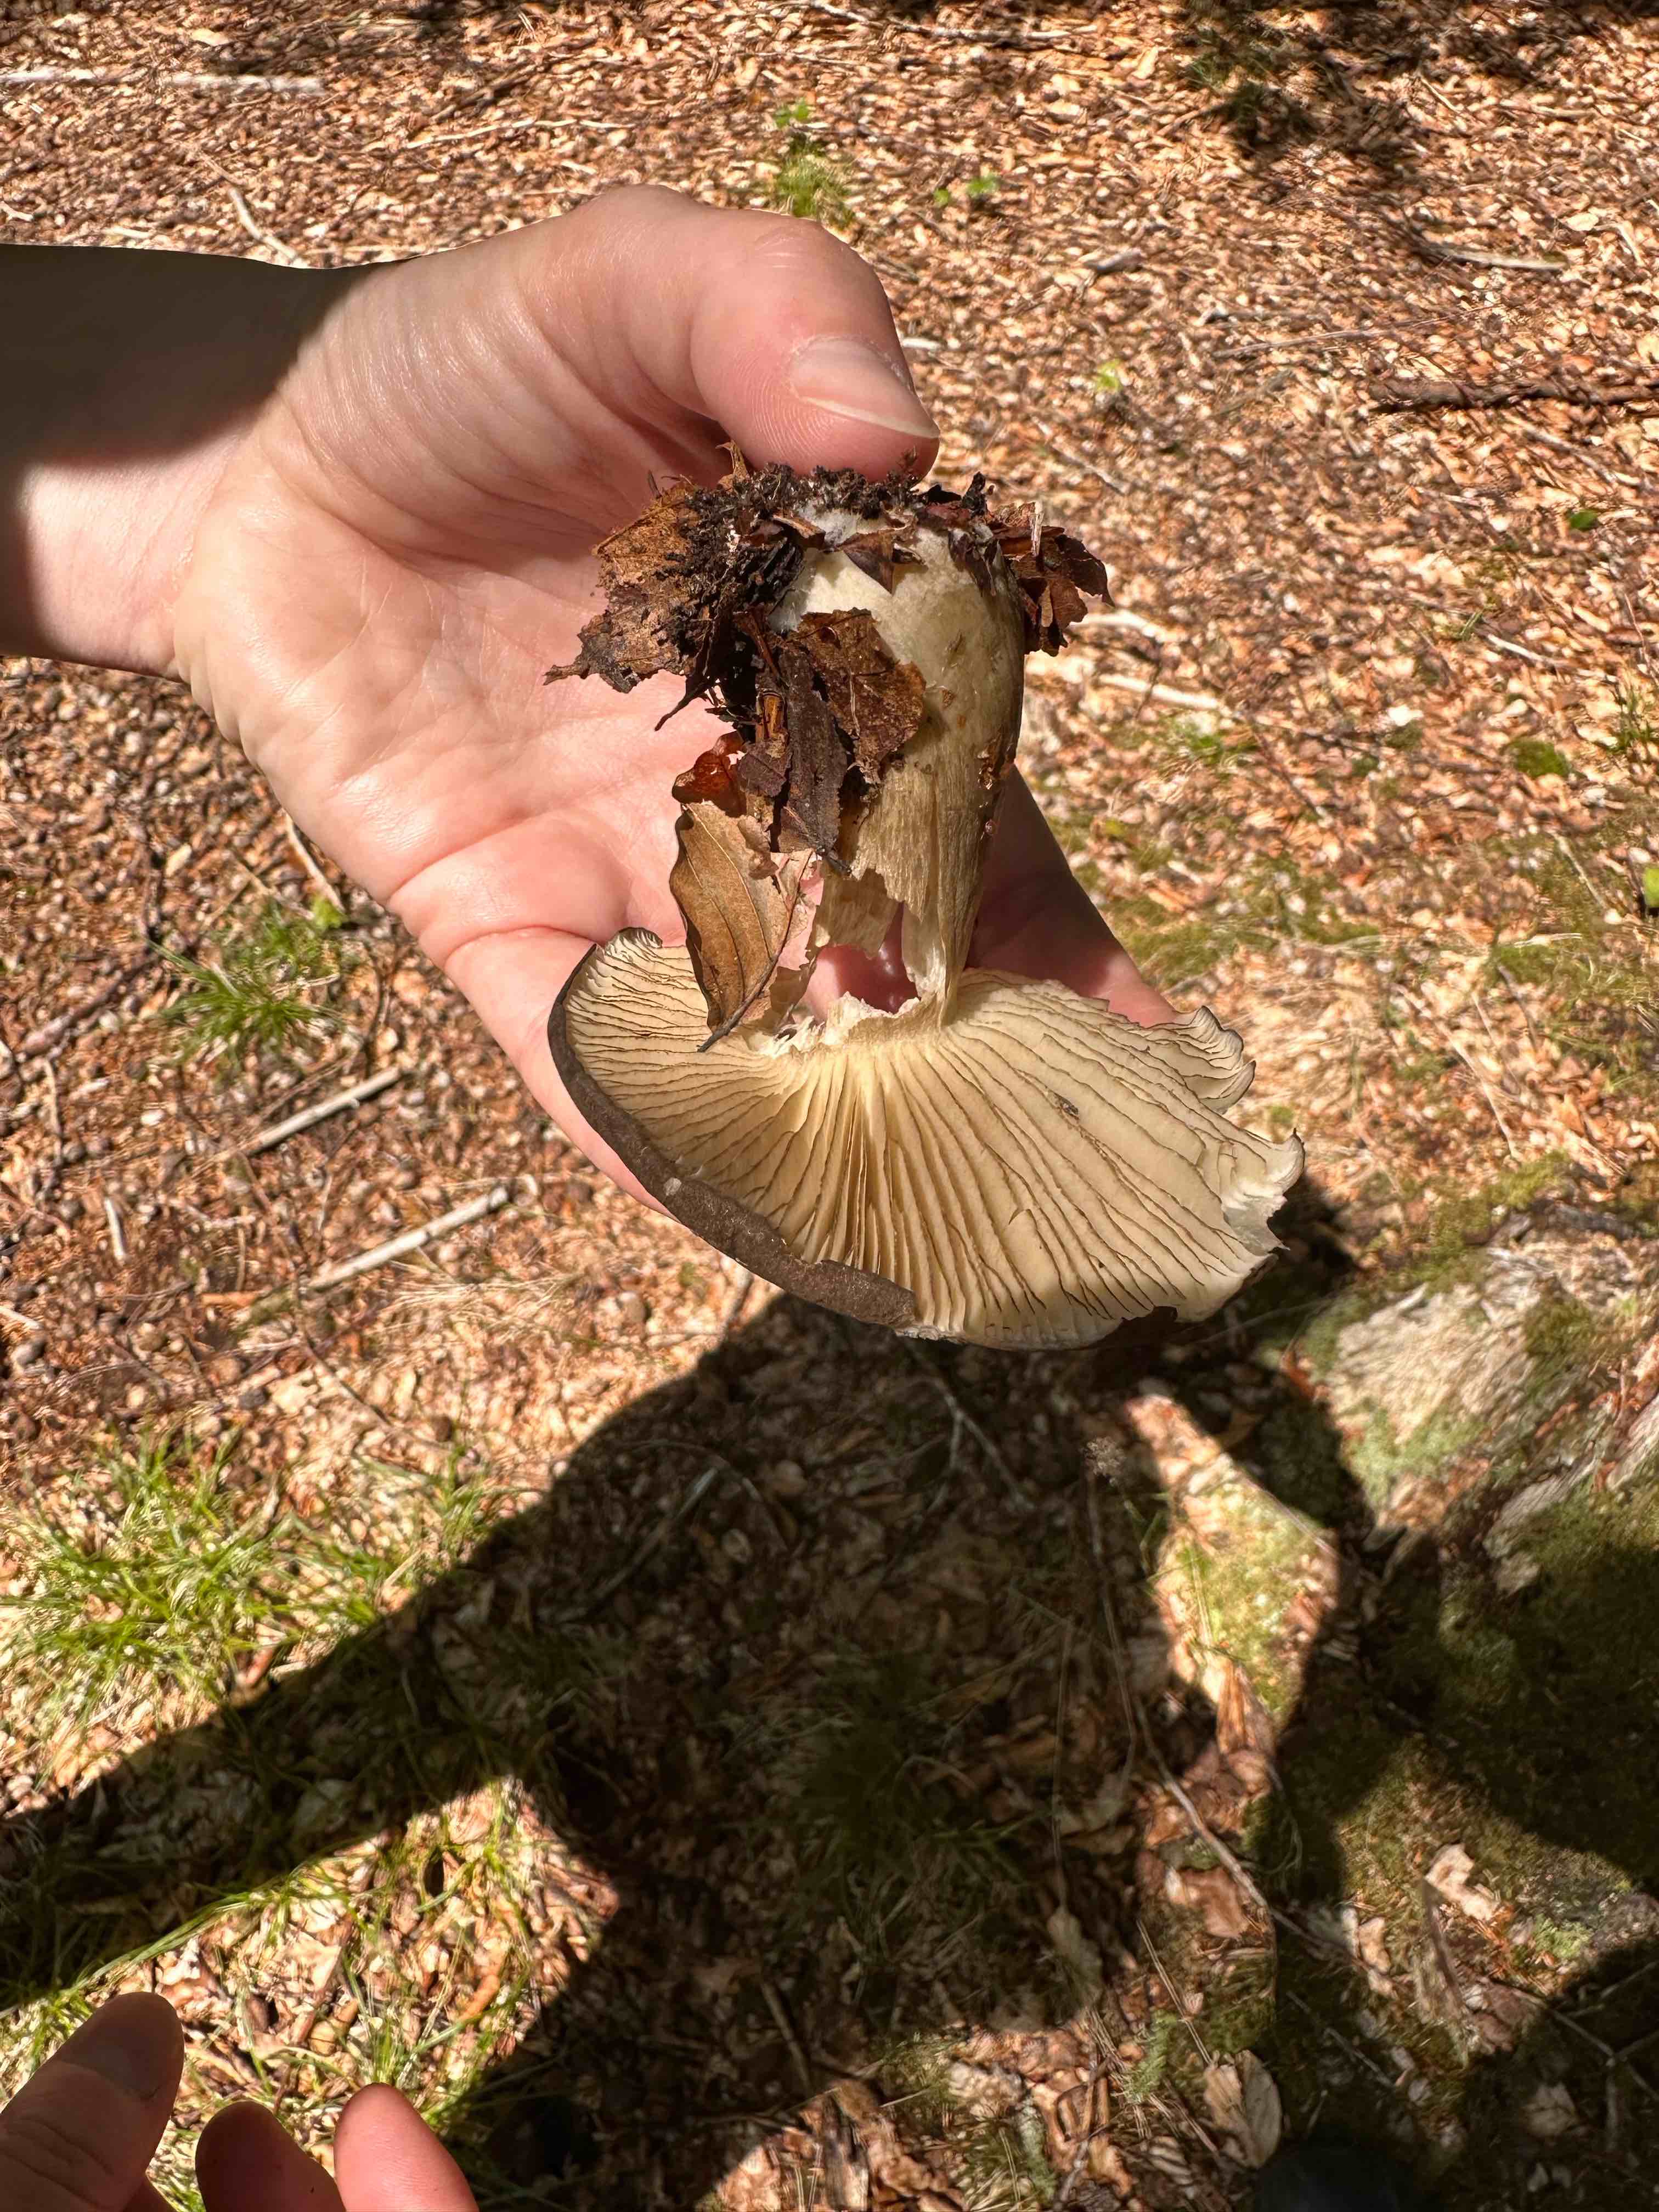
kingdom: Fungi
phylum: Basidiomycota
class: Agaricomycetes
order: Agaricales
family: Tricholomataceae
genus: Megacollybia
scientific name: Megacollybia platyphylla
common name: bredbladet væbnerhat
